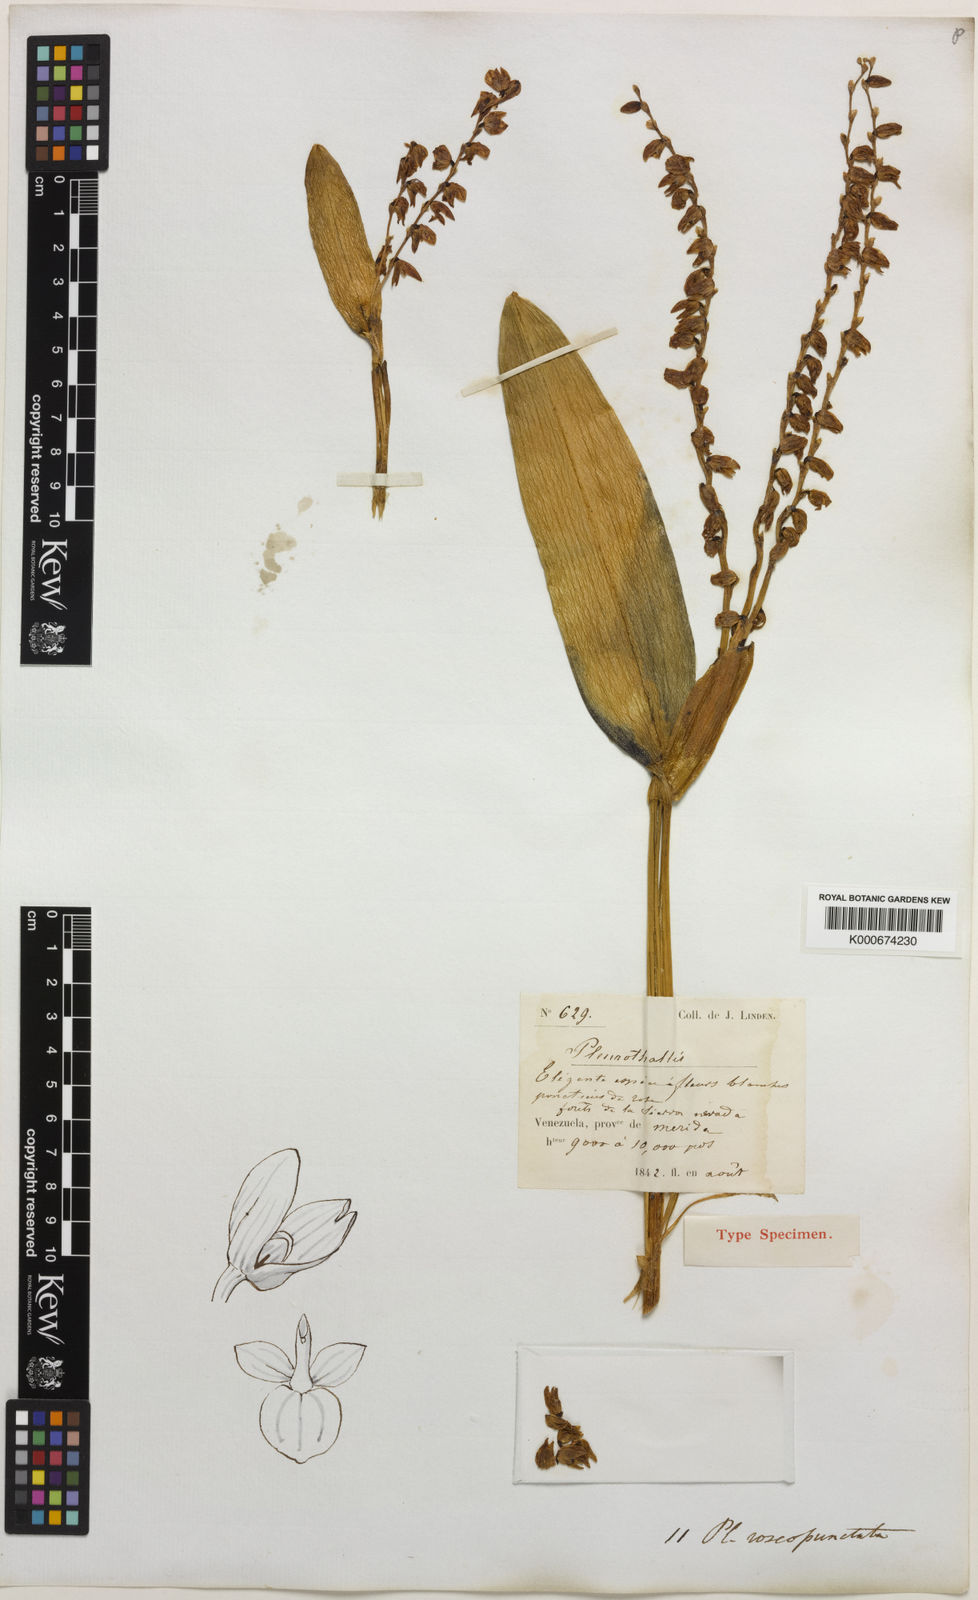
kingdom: Plantae
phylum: Tracheophyta
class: Liliopsida
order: Asparagales
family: Orchidaceae
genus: Stelis
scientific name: Stelis roseopunctata
